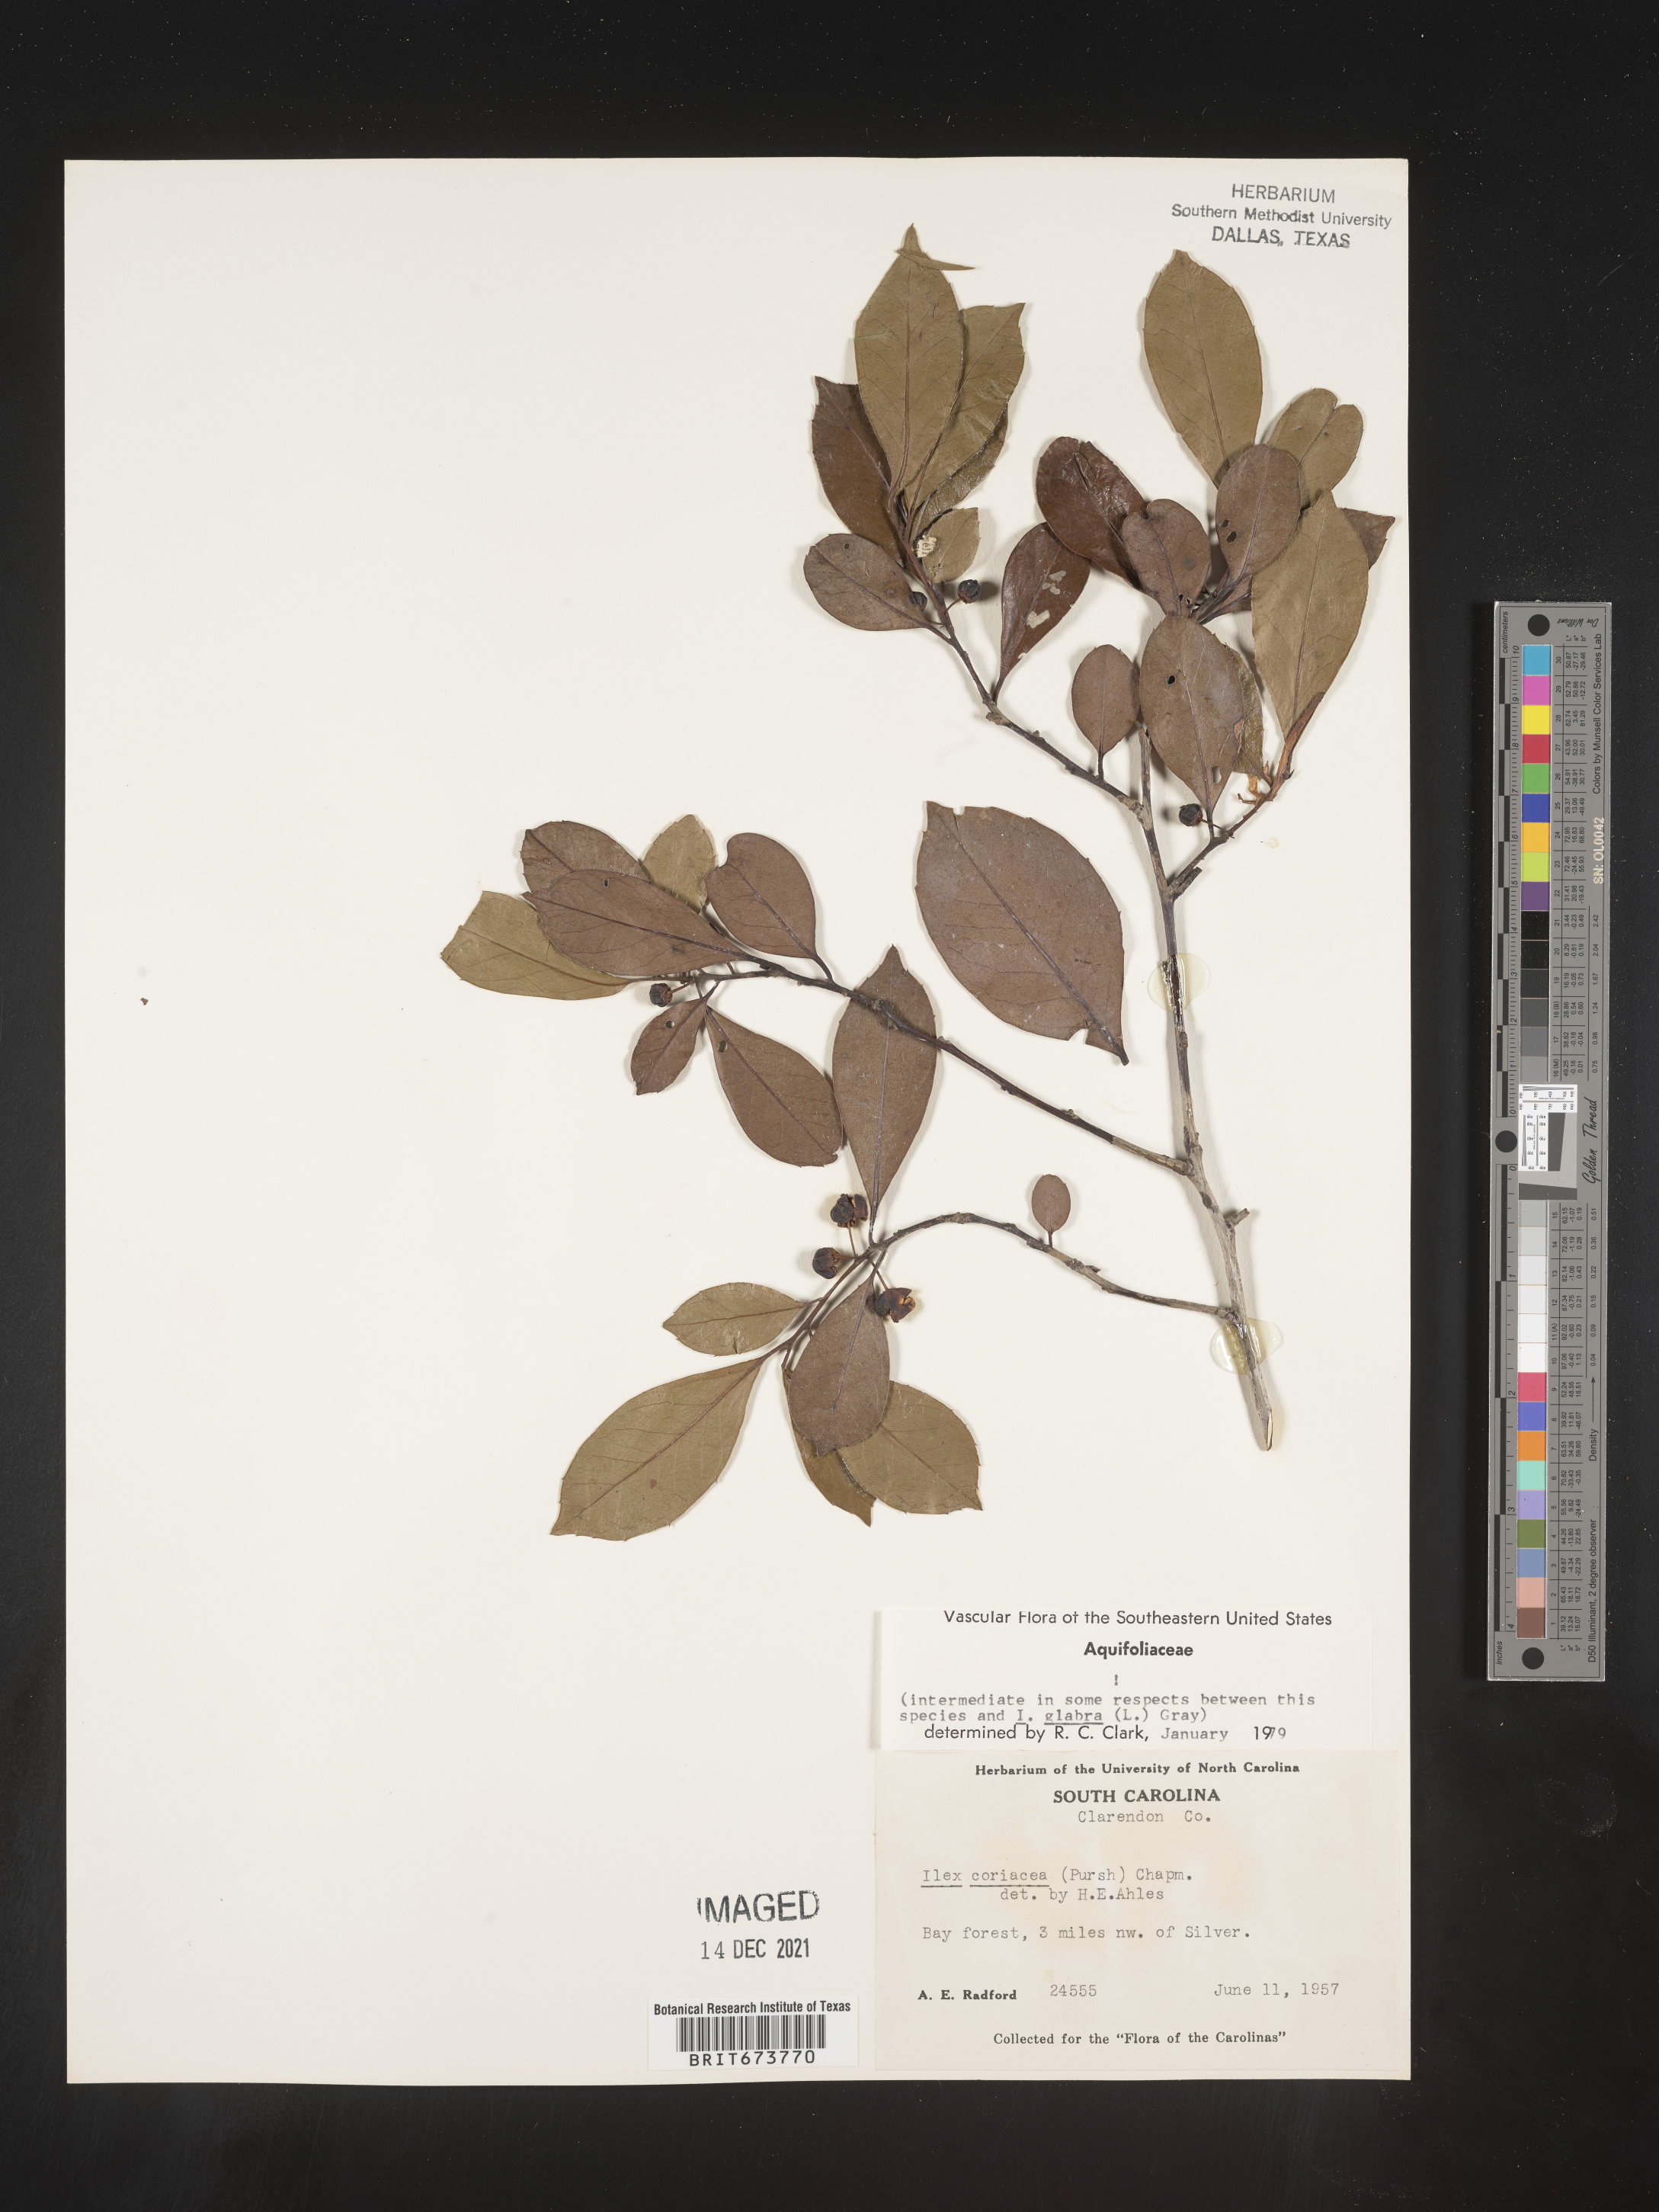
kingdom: Plantae
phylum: Tracheophyta
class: Magnoliopsida
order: Aquifoliales
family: Aquifoliaceae
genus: Ilex
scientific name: Ilex coriacea
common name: Sweet gallberry
